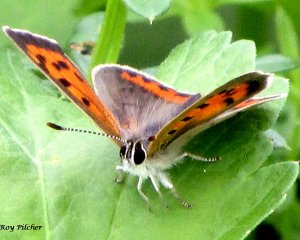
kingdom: Animalia
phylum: Arthropoda
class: Insecta
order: Lepidoptera
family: Lycaenidae
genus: Lycaena
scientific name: Lycaena phlaeas
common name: American Copper
